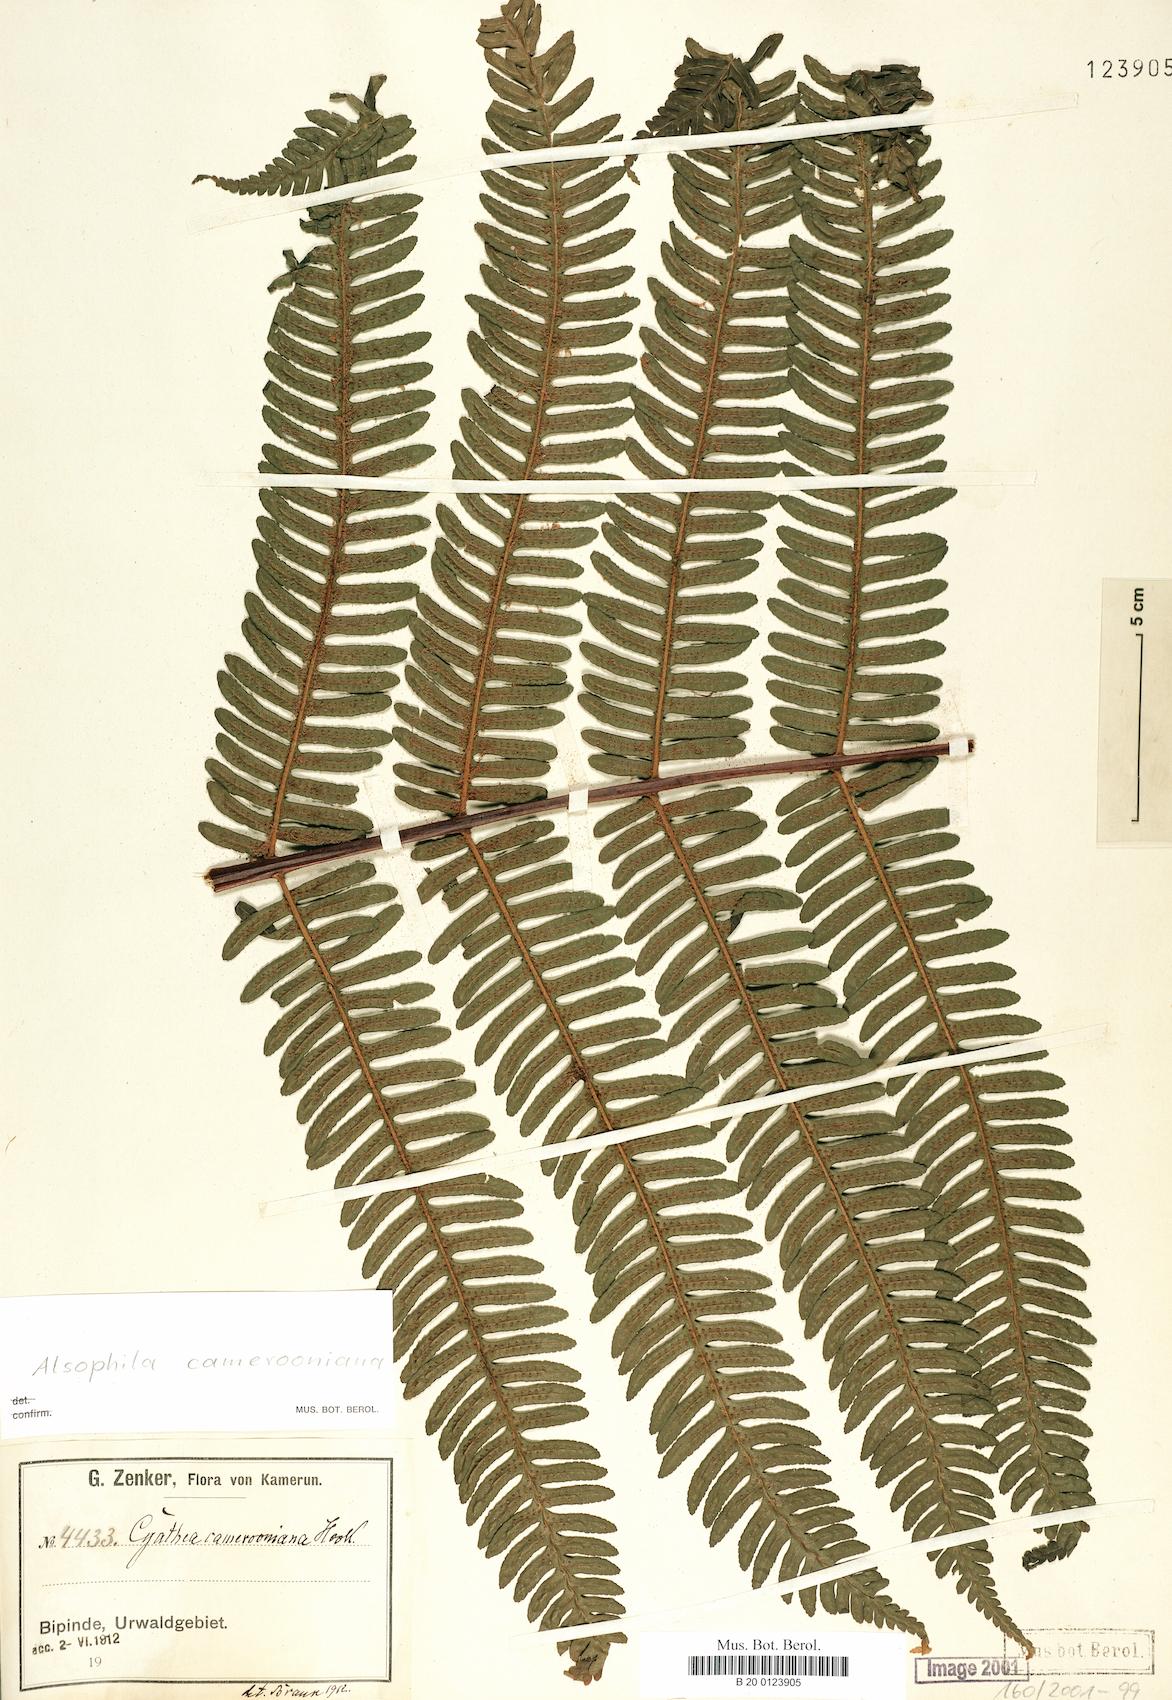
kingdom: Plantae
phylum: Tracheophyta
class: Polypodiopsida
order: Cyatheales
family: Cyatheaceae
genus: Alsophila
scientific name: Alsophila camerooniana
